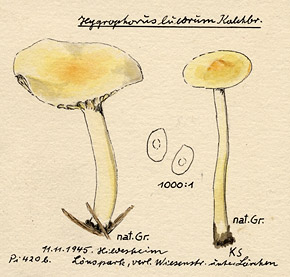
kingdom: Fungi
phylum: Basidiomycota
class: Agaricomycetes
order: Agaricales
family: Hygrophoraceae
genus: Hygrophorus
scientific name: Hygrophorus lucorum
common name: Larch woodwax
